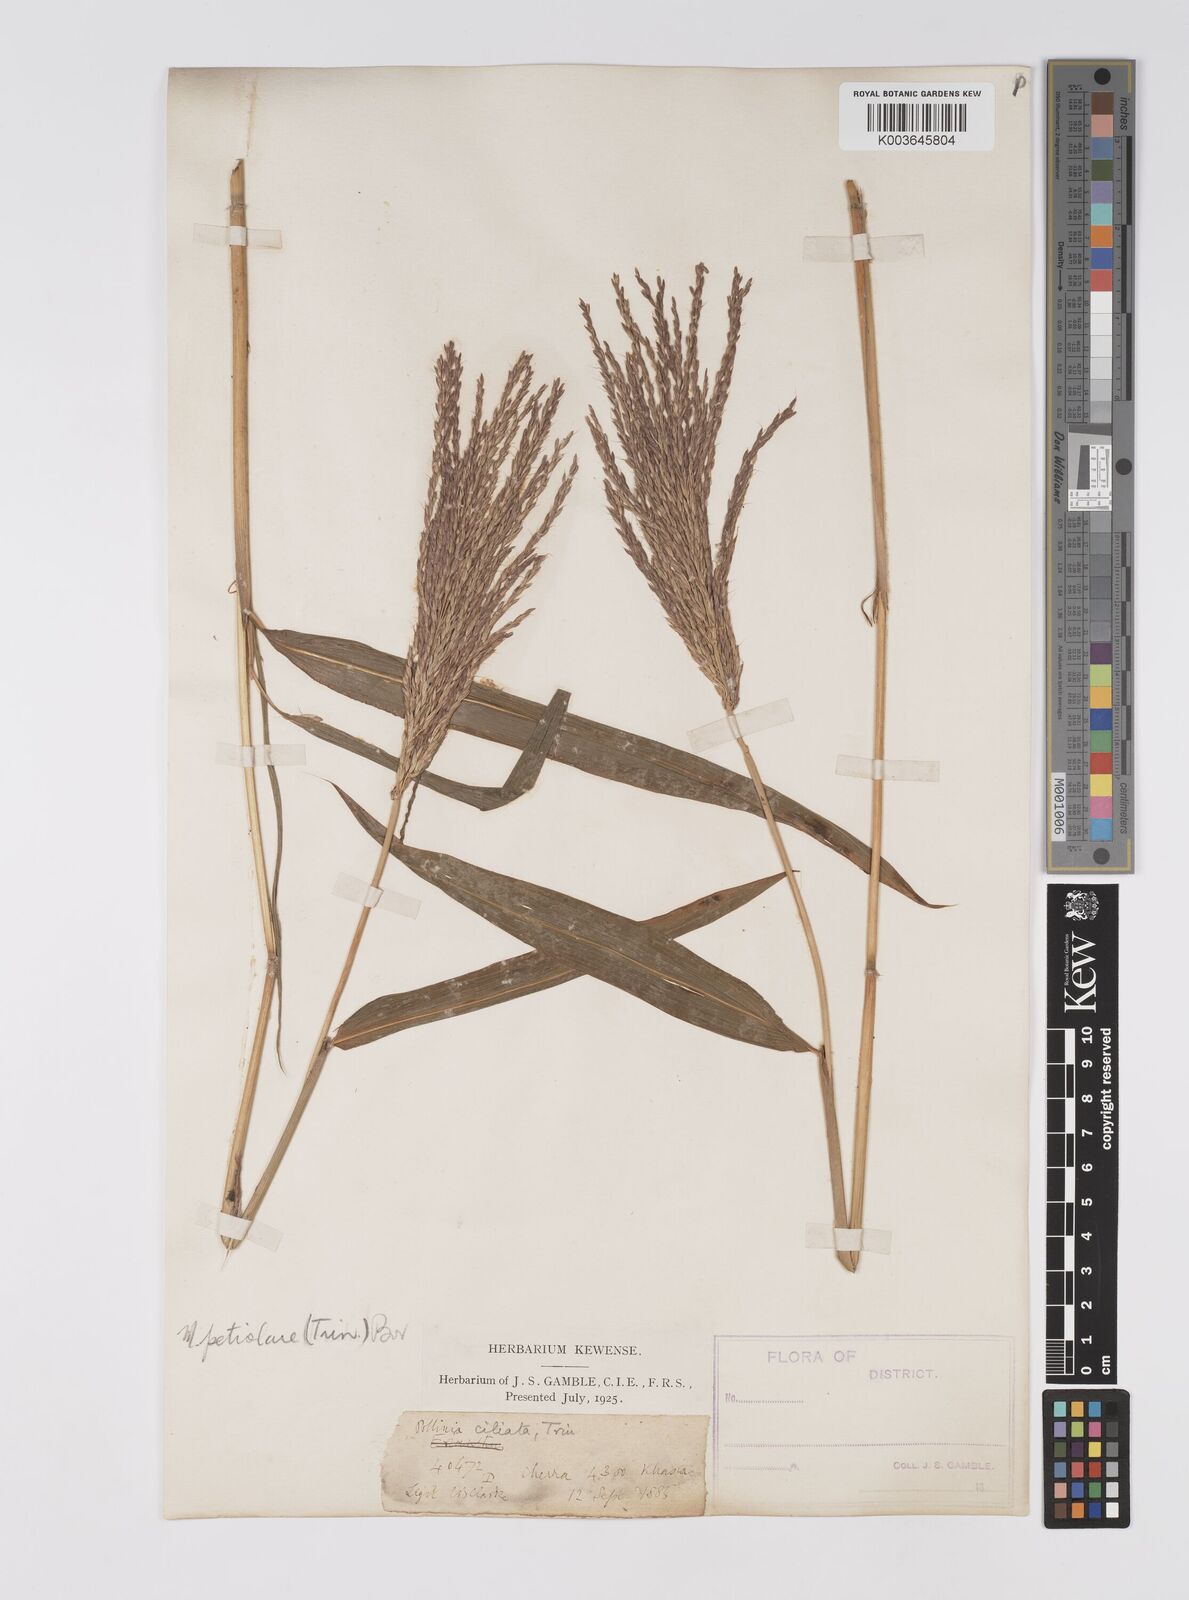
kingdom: Plantae
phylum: Tracheophyta
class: Liliopsida
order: Poales
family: Poaceae
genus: Microstegium
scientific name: Microstegium petiolare
